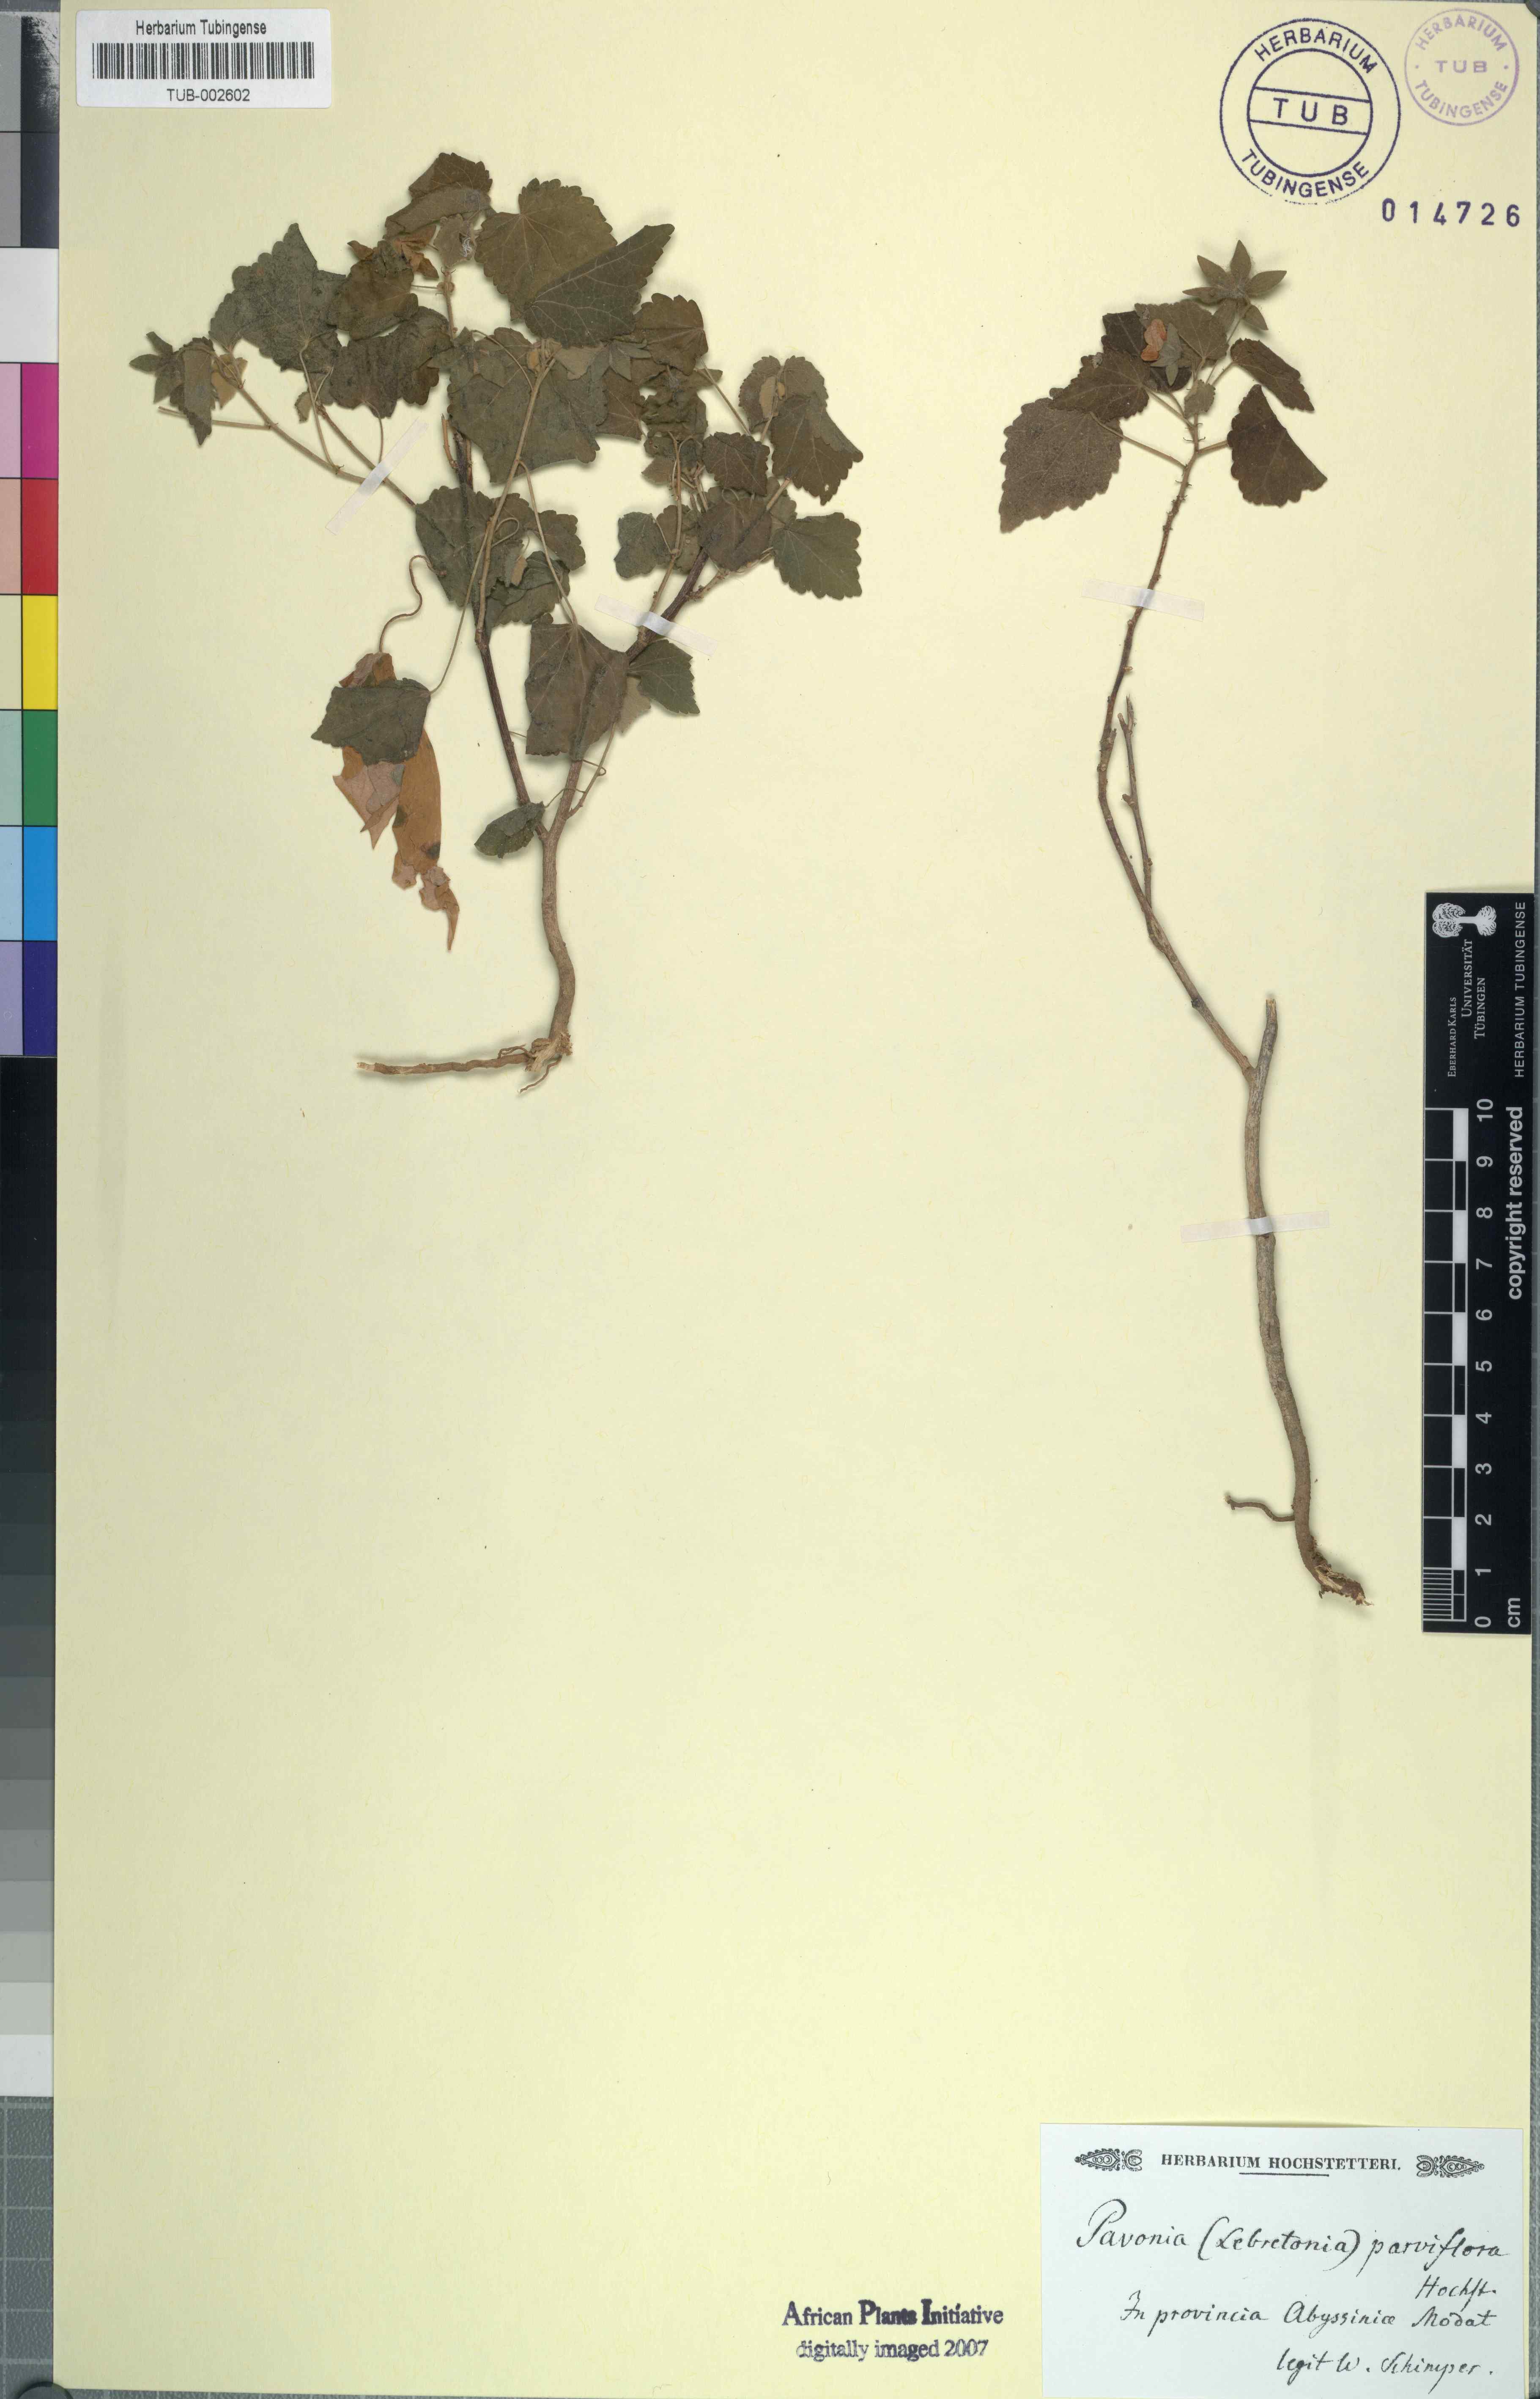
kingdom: Plantae
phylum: Tracheophyta
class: Magnoliopsida
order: Malvales
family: Malvaceae
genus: Kosteletzkya
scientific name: Kosteletzkya hispidula
